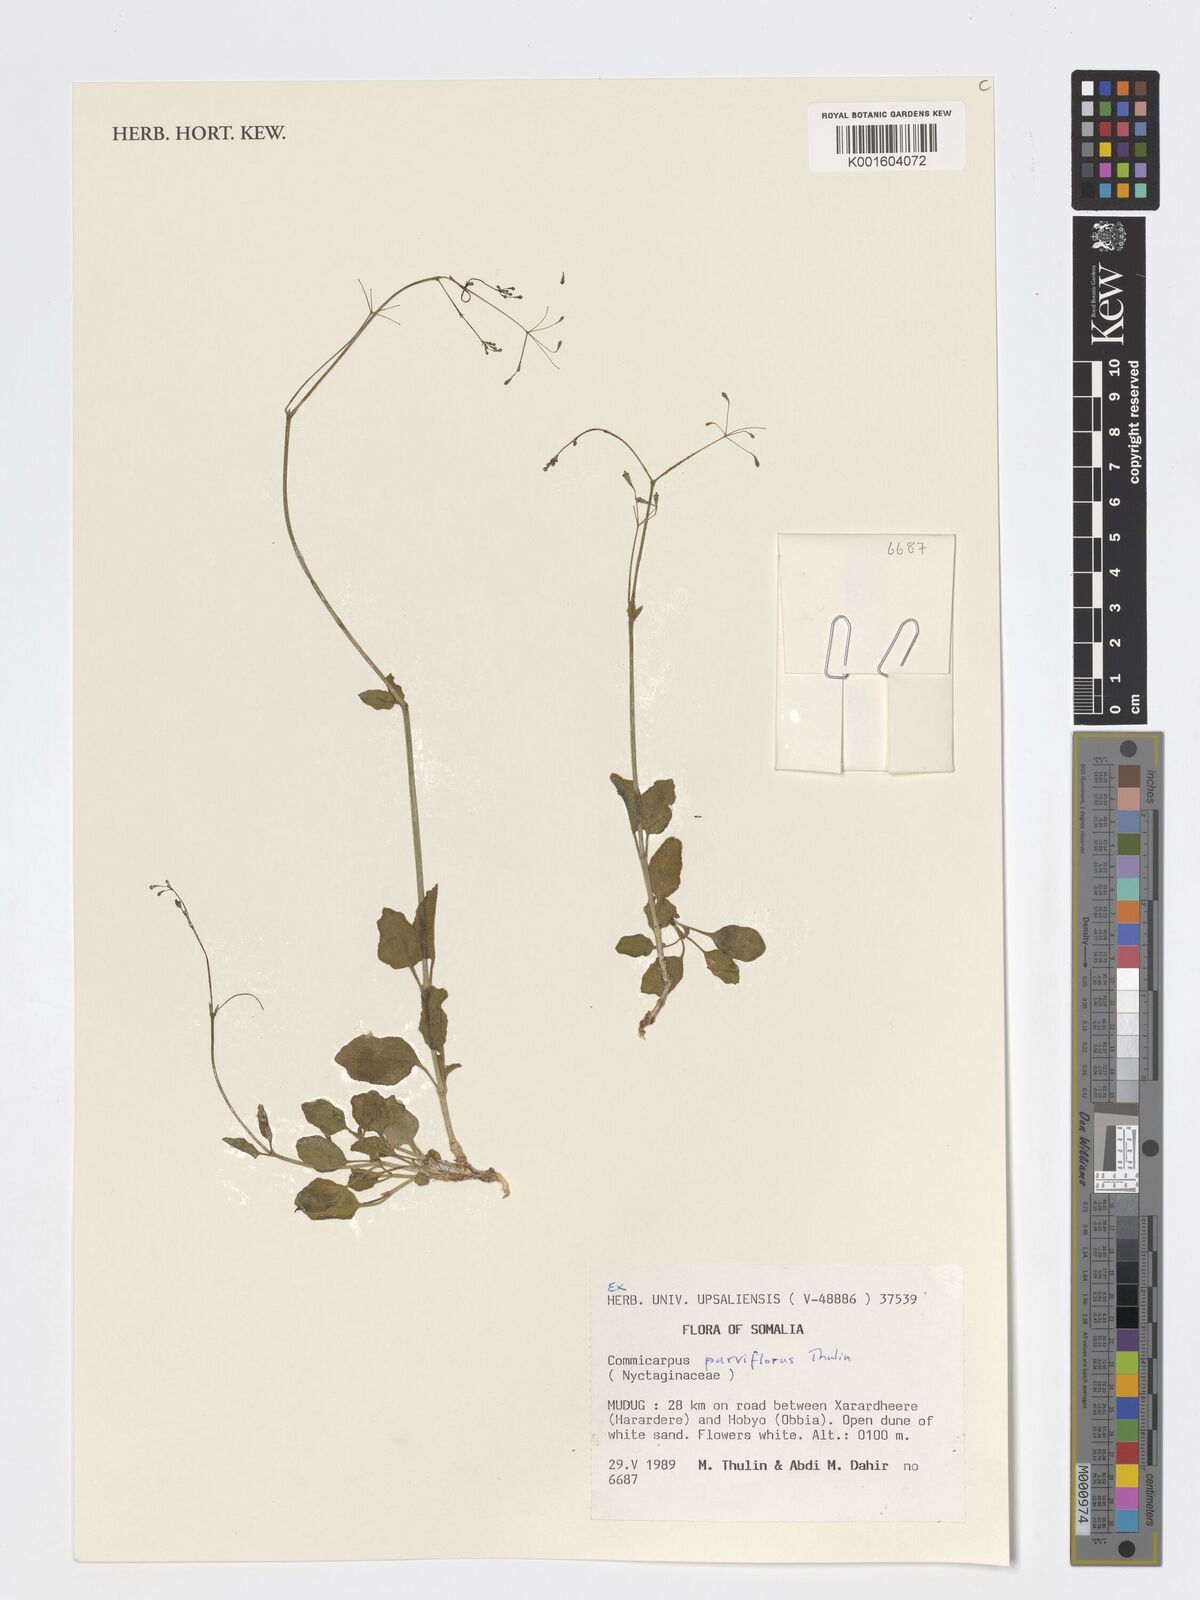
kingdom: Plantae
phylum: Tracheophyta
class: Magnoliopsida
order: Caryophyllales
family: Nyctaginaceae
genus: Commicarpus
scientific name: Commicarpus parviflorus
